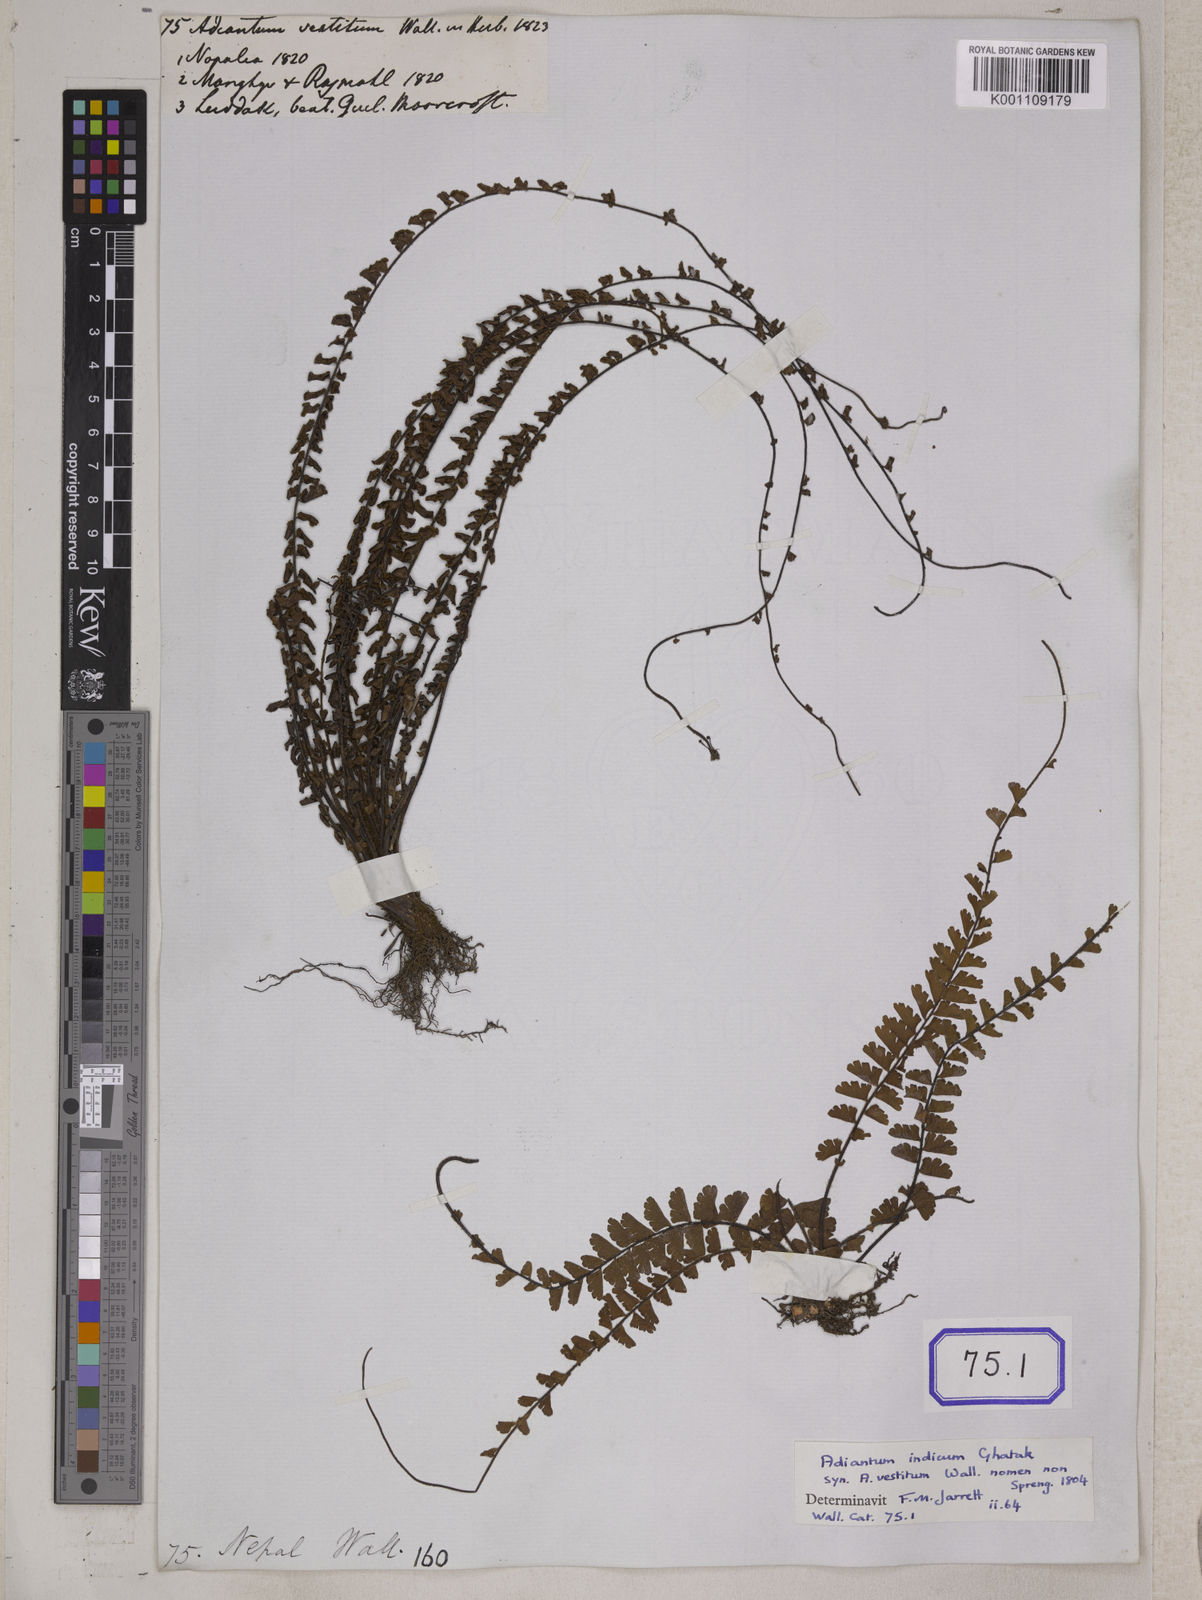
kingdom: Plantae
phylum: Tracheophyta
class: Polypodiopsida
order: Polypodiales
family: Pteridaceae
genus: Adiantum
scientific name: Adiantum incisum
